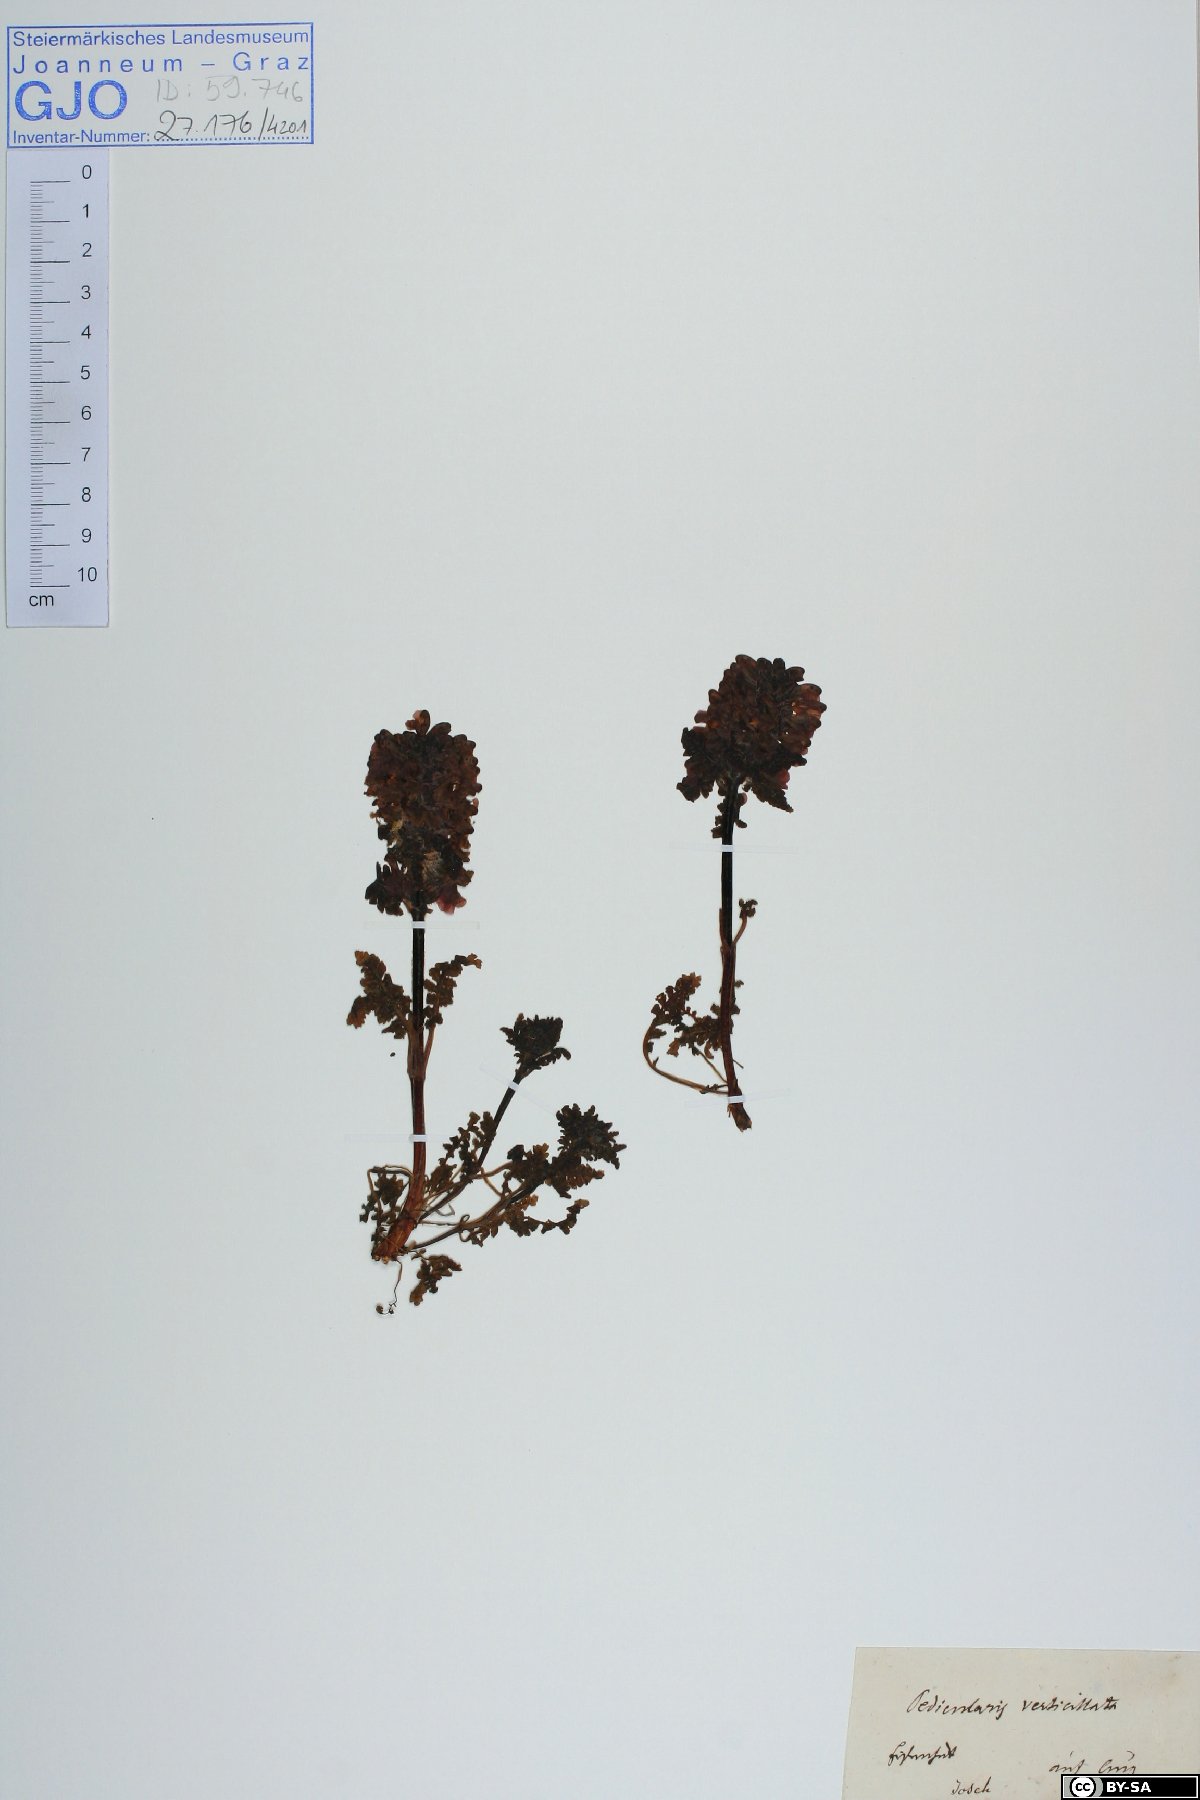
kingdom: Plantae
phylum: Tracheophyta
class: Magnoliopsida
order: Lamiales
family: Orobanchaceae
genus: Pedicularis
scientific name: Pedicularis verticillata
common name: Whorled lousewort
